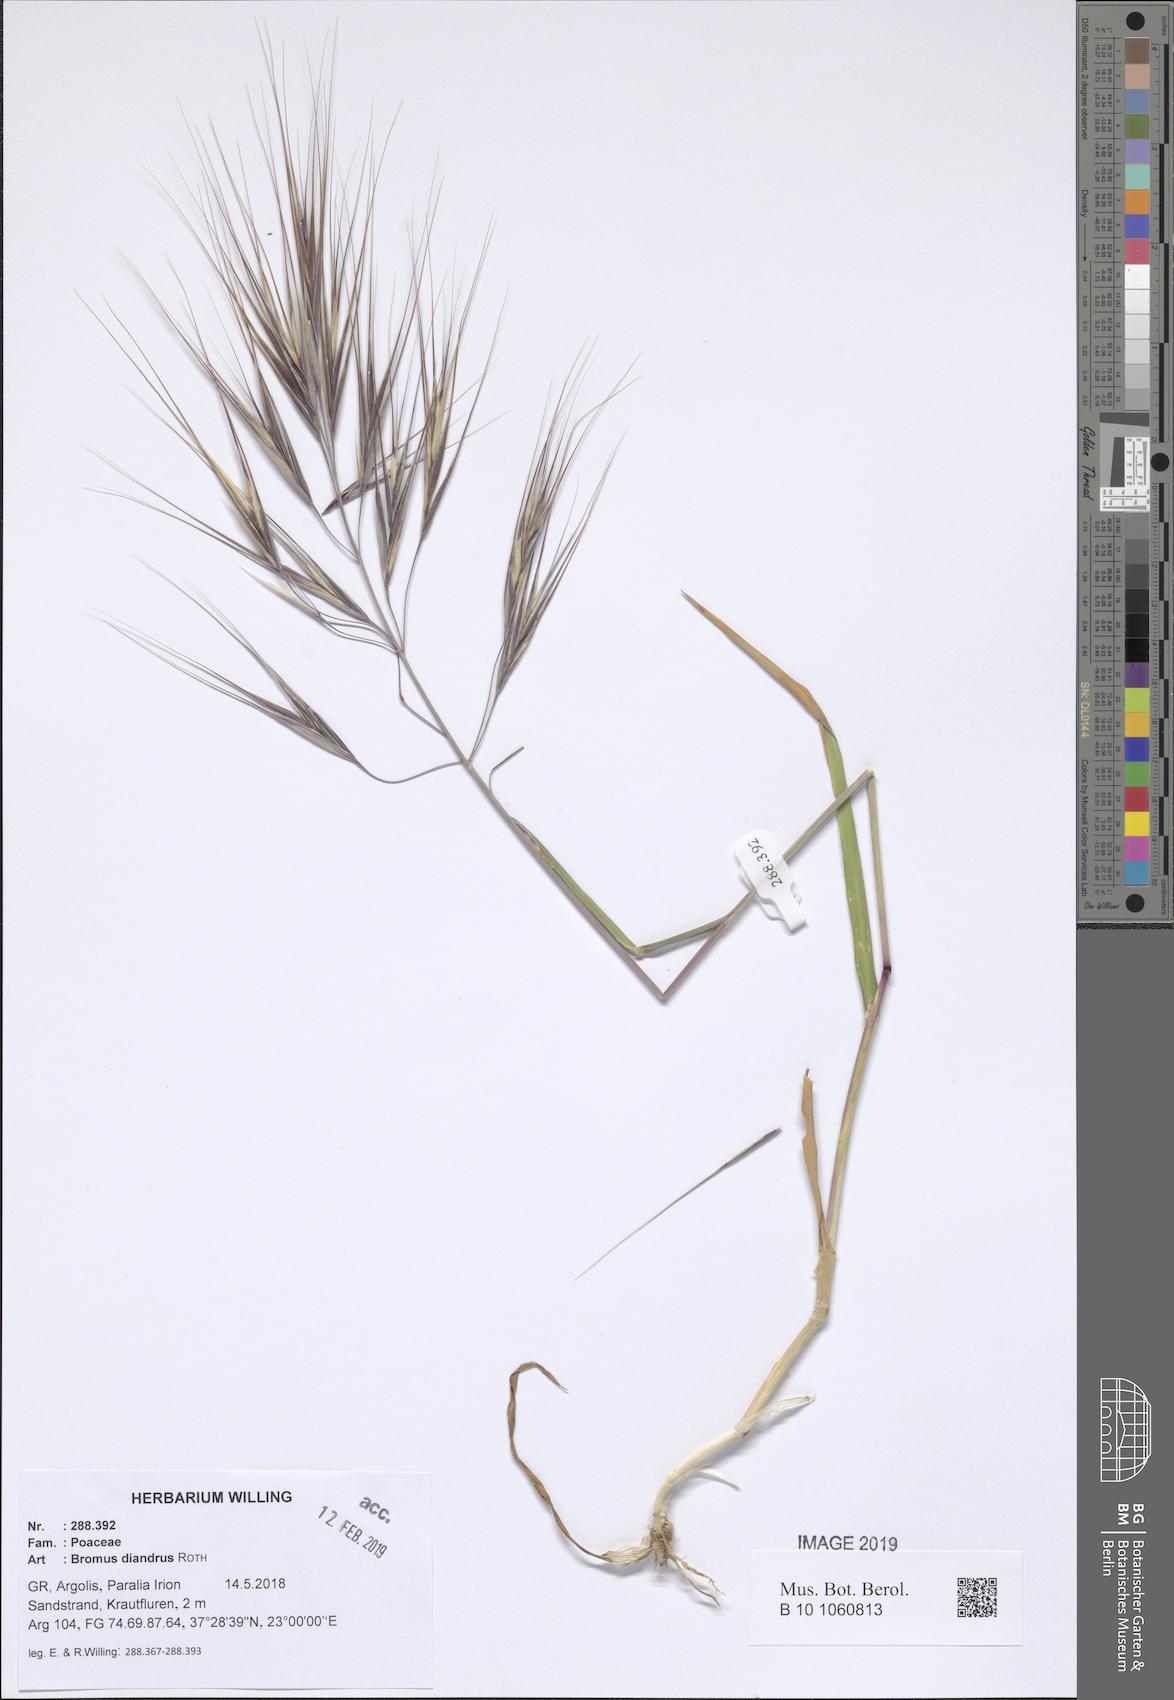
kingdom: Plantae
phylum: Tracheophyta
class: Liliopsida
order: Poales
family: Poaceae
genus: Bromus
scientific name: Bromus diandrus
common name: Ripgut brome
